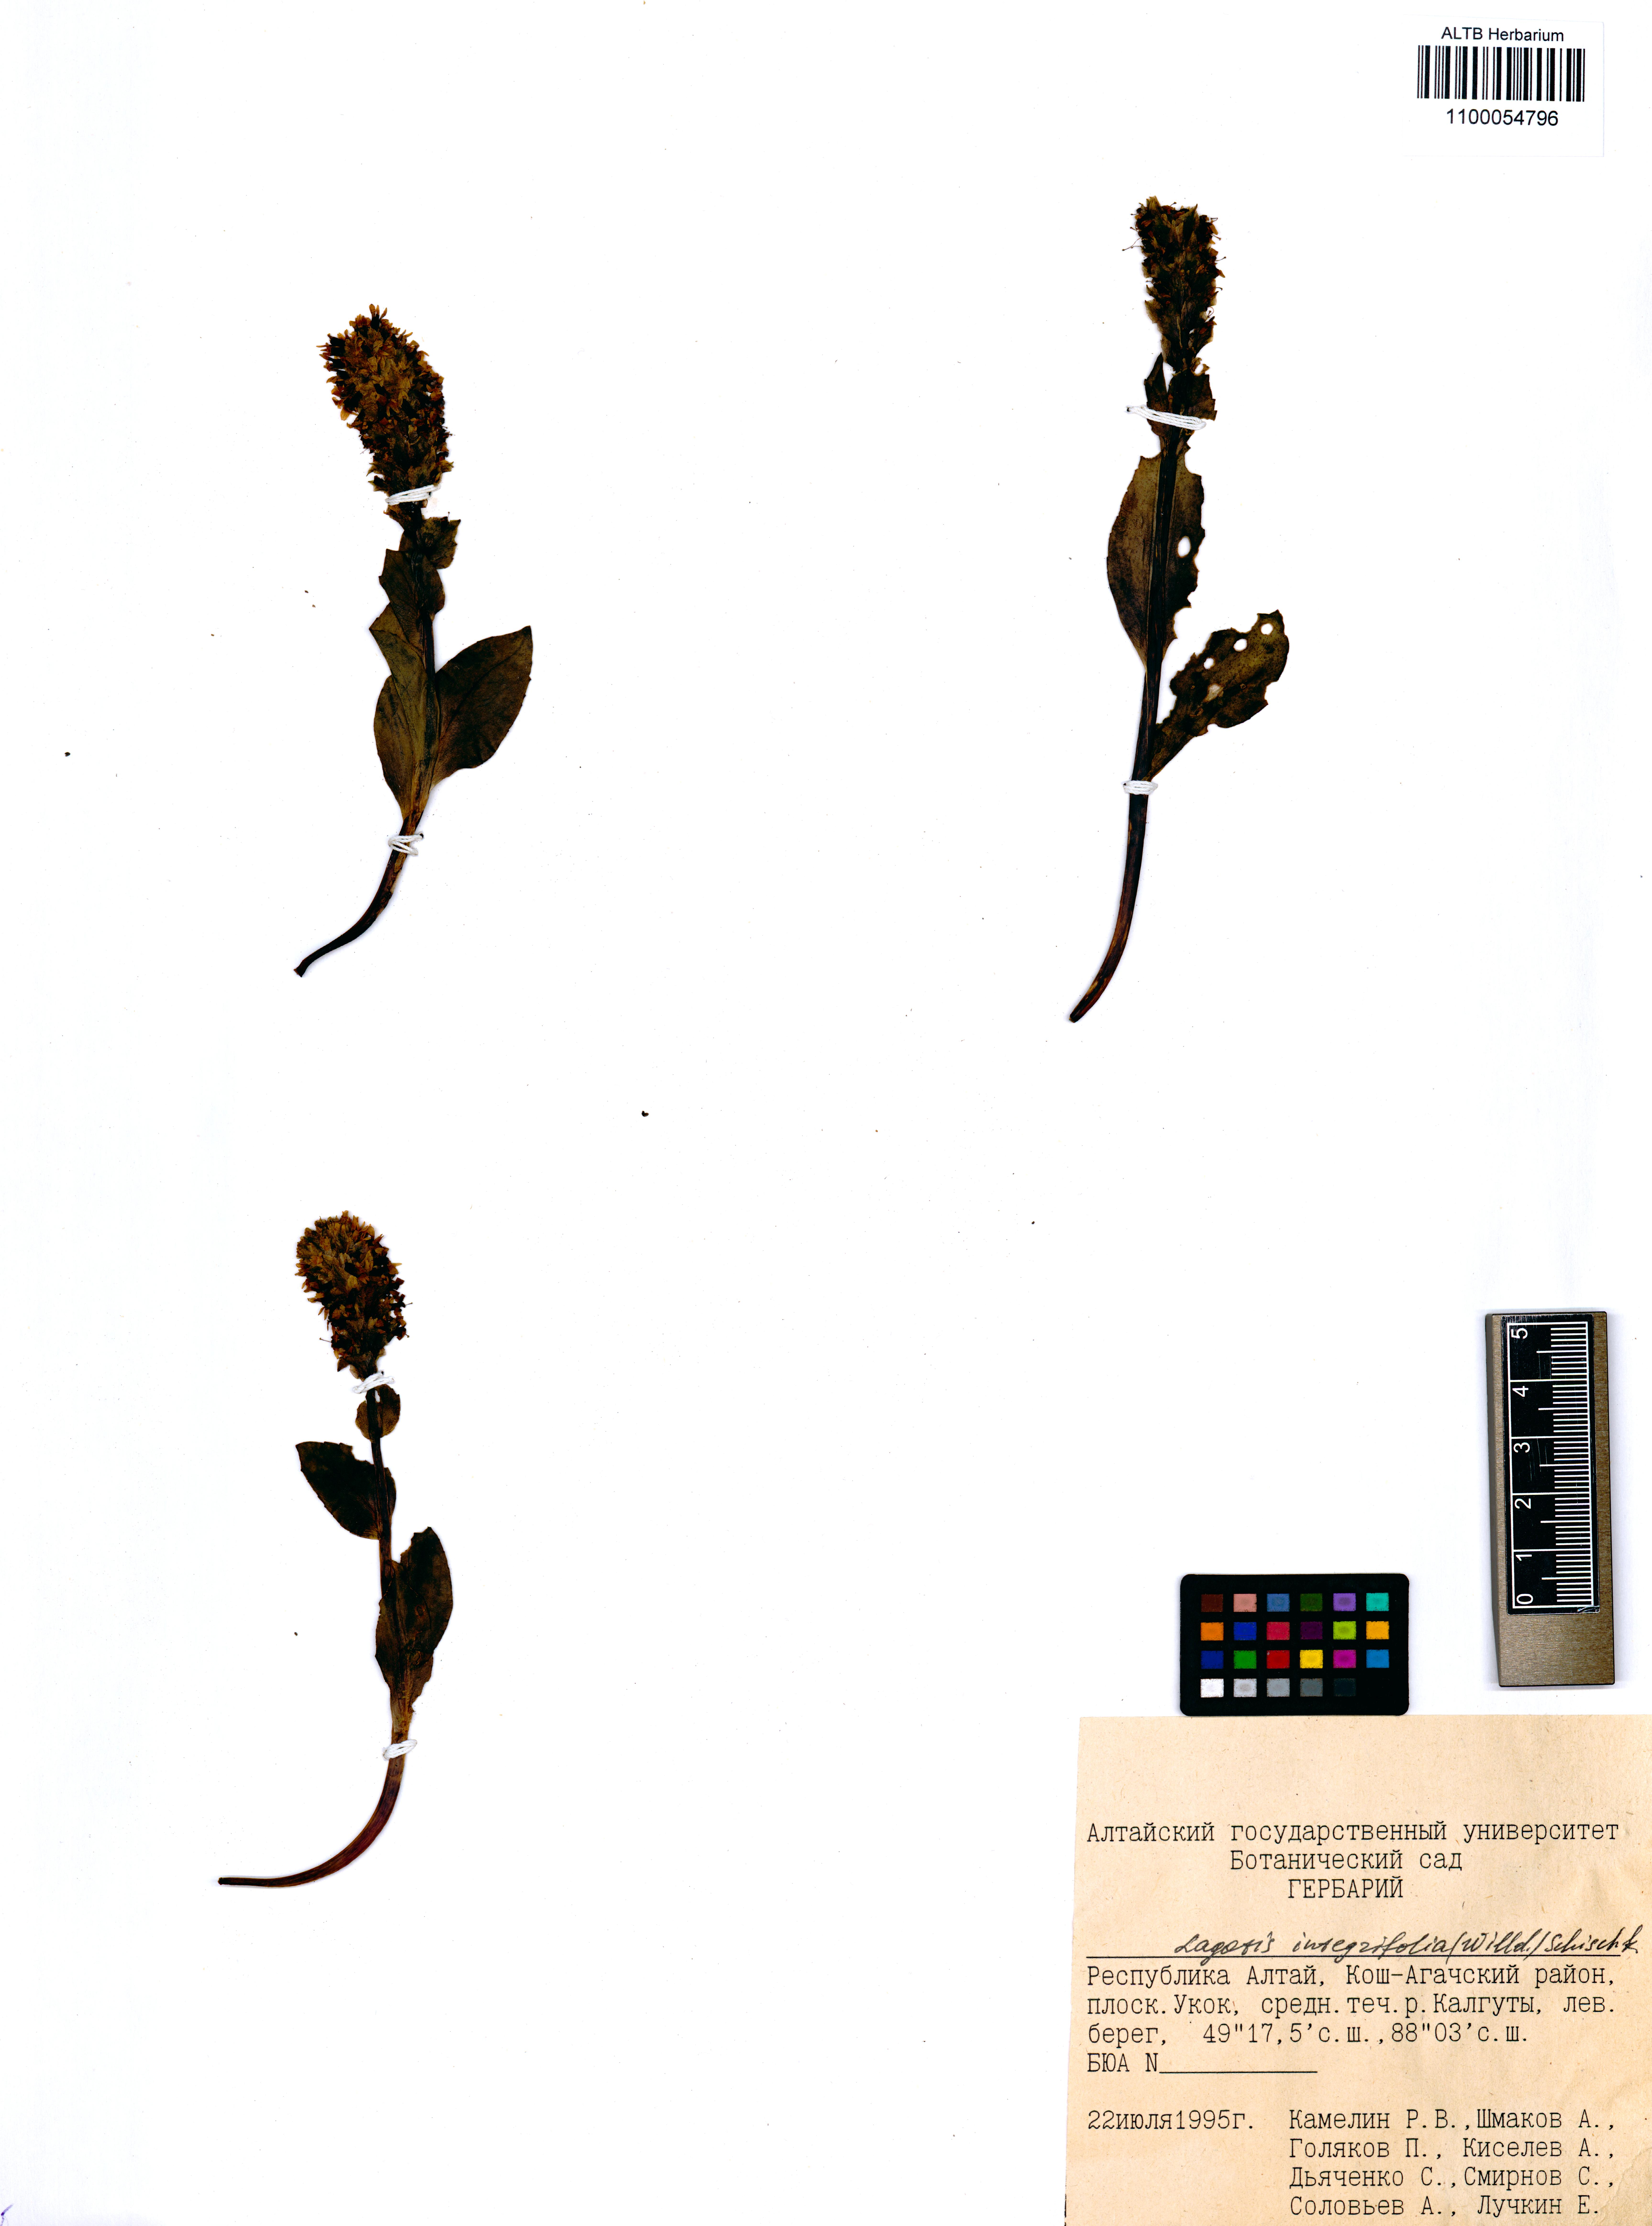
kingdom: Plantae
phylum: Tracheophyta
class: Magnoliopsida
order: Lamiales
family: Plantaginaceae
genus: Lagotis
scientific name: Lagotis integrifolia
